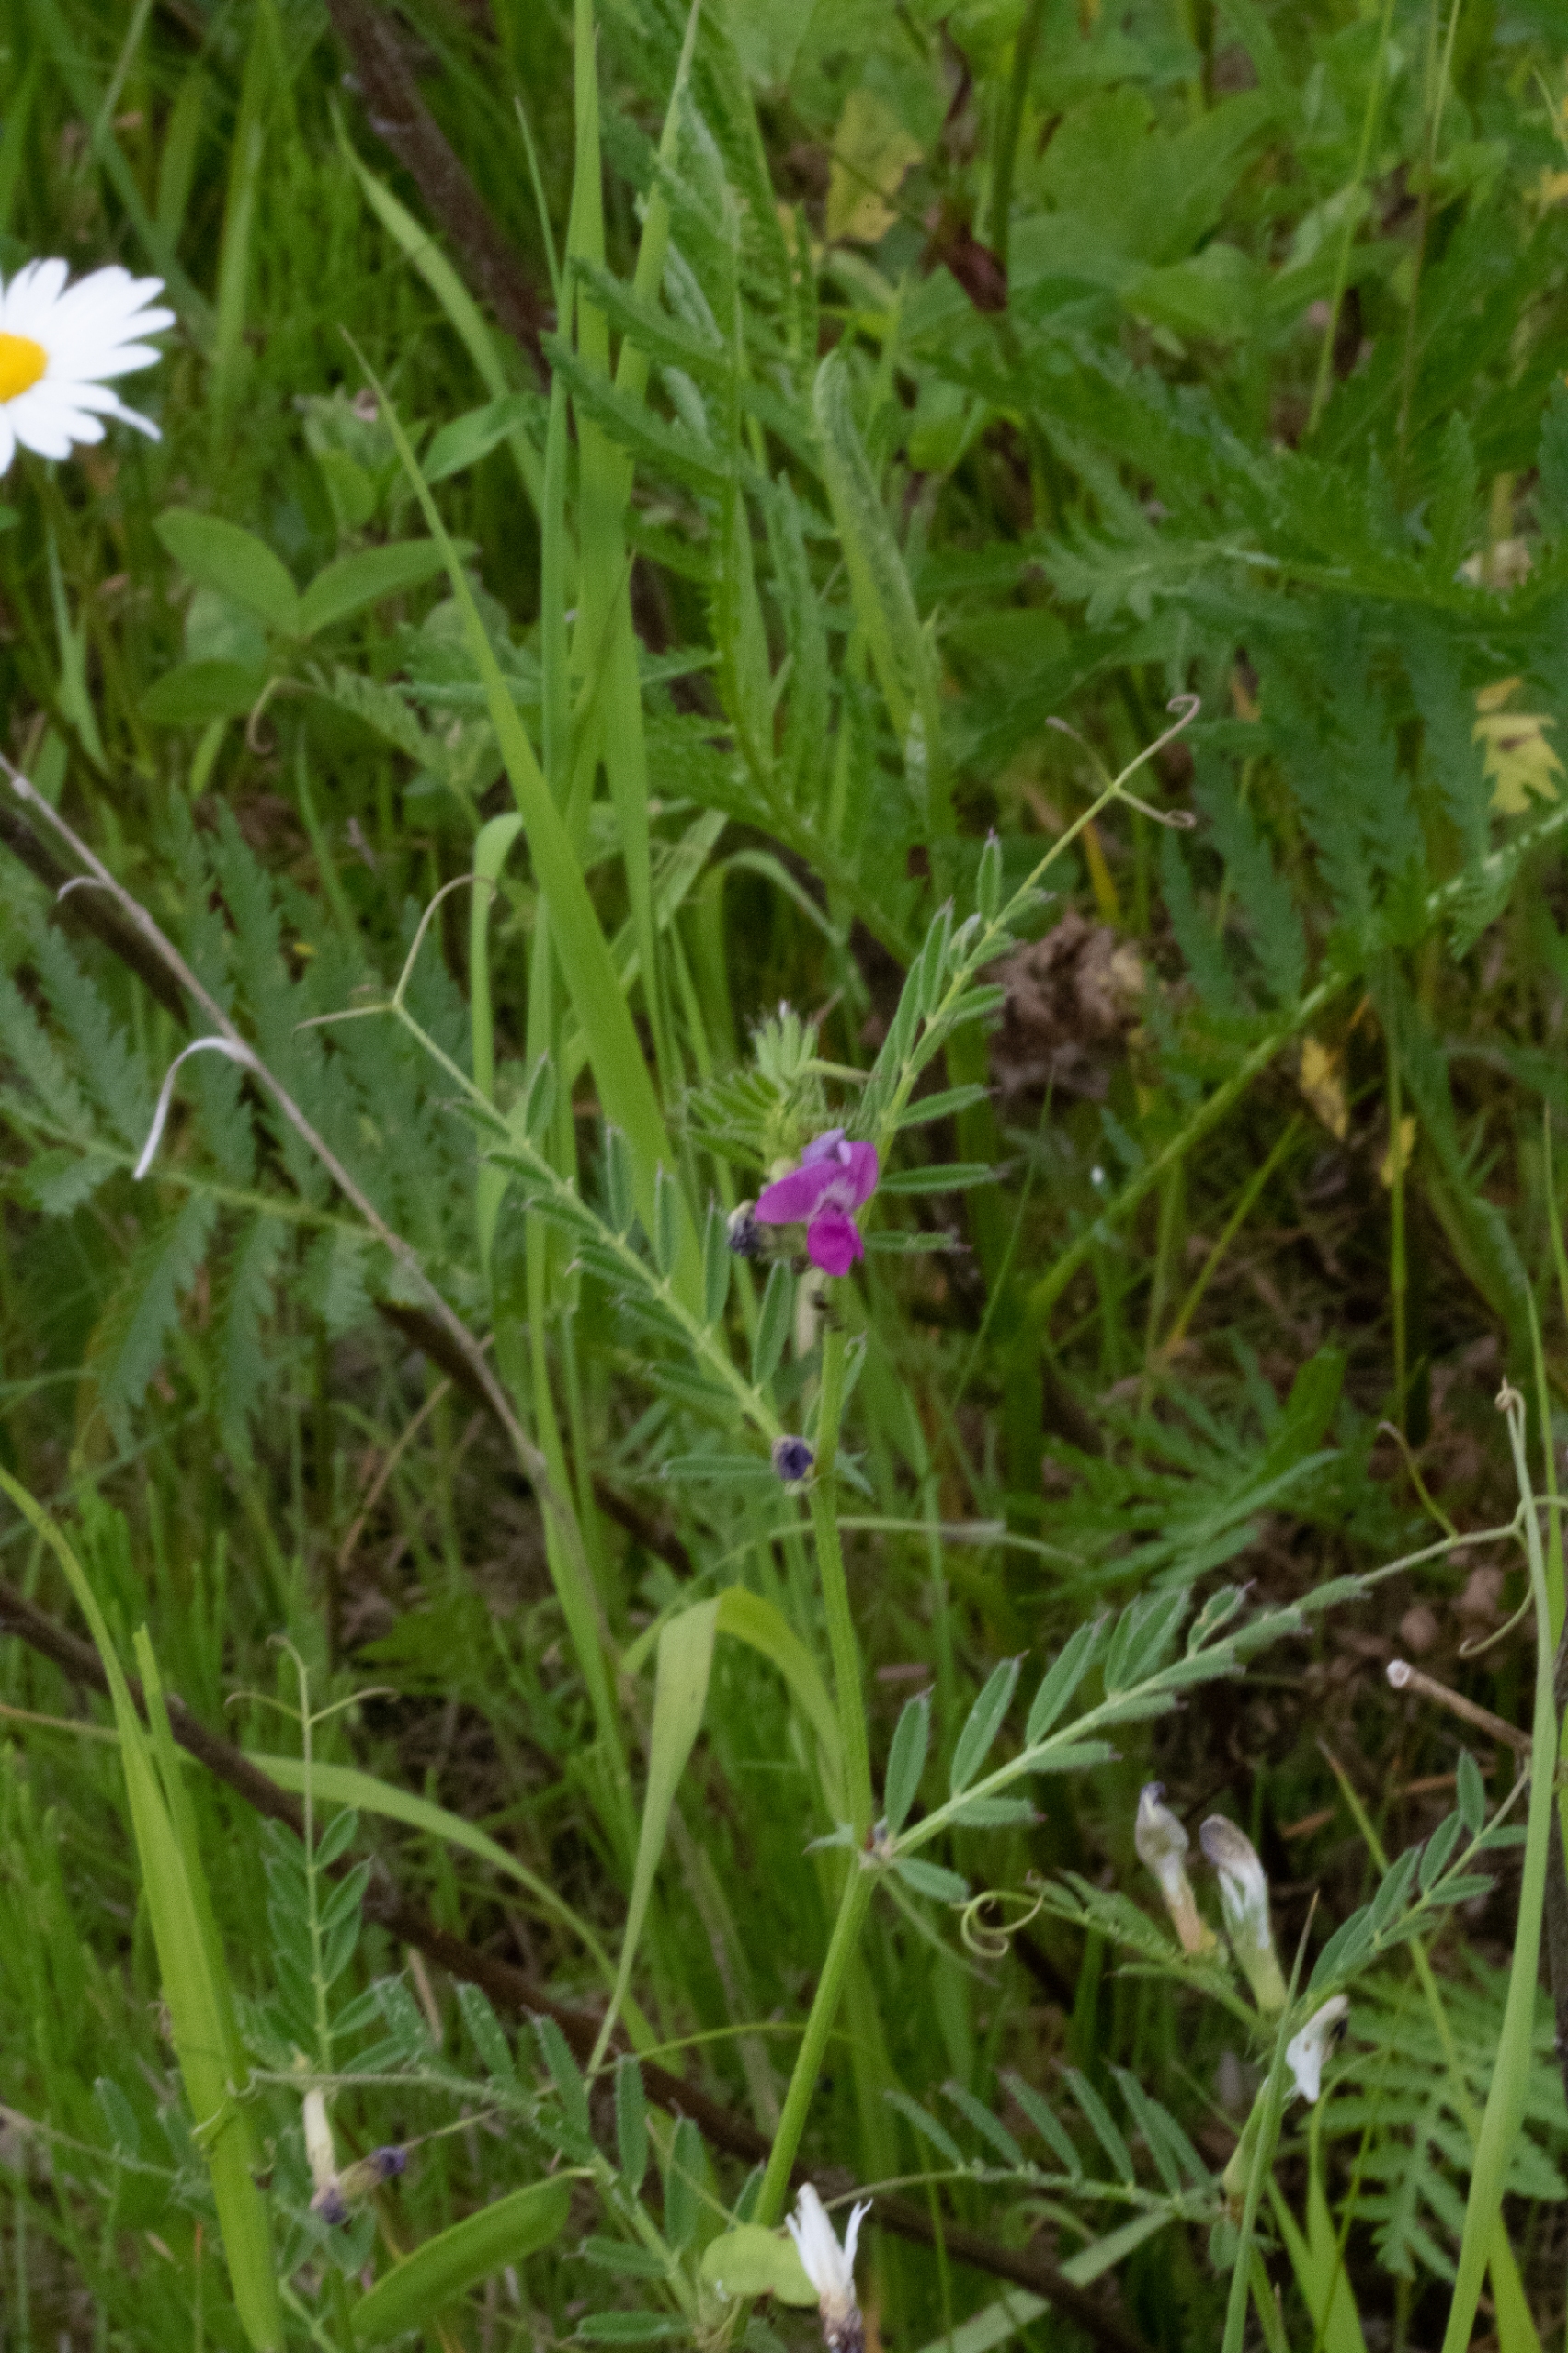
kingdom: Plantae
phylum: Tracheophyta
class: Magnoliopsida
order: Fabales
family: Fabaceae
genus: Vicia
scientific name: Vicia sativa
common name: Smalbladet vikke
